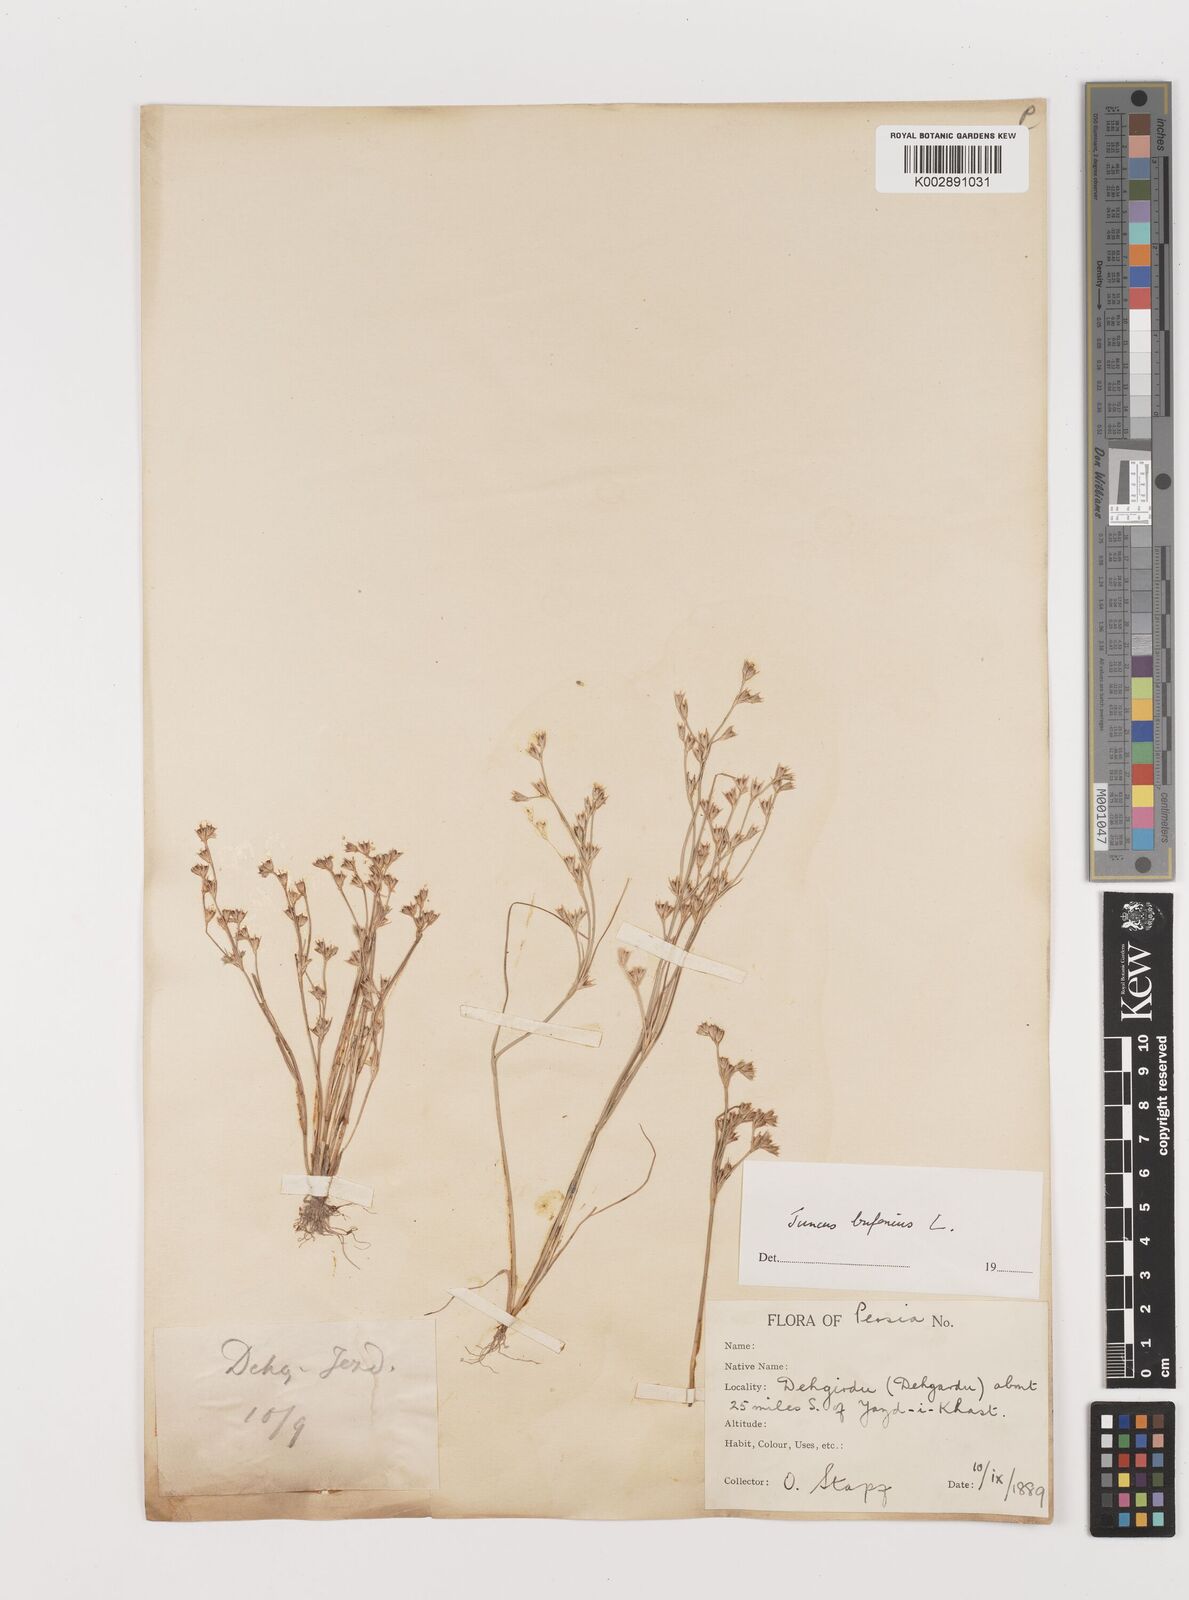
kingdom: Plantae
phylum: Tracheophyta
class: Liliopsida
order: Poales
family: Juncaceae
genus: Juncus
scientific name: Juncus bufonius
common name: Toad rush
